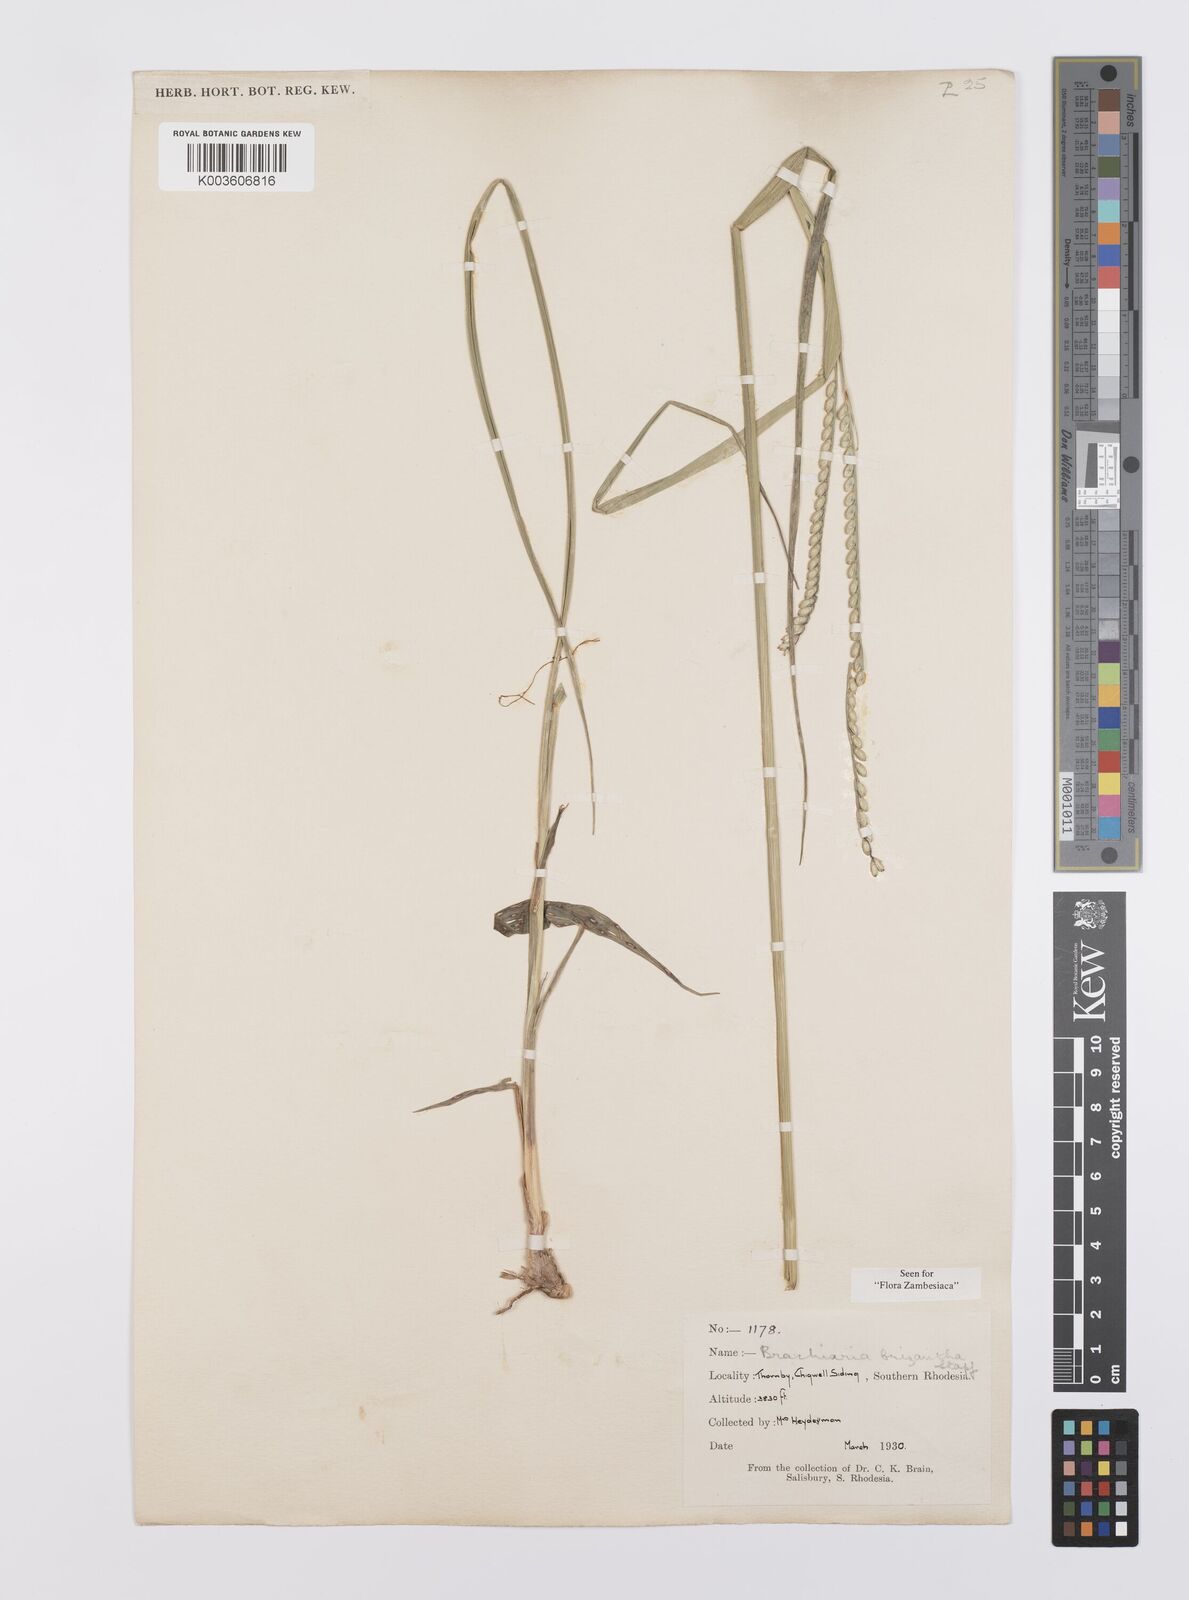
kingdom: Plantae
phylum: Tracheophyta
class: Liliopsida
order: Poales
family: Poaceae
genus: Urochloa
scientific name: Urochloa brizantha
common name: Palisade signalgrass
